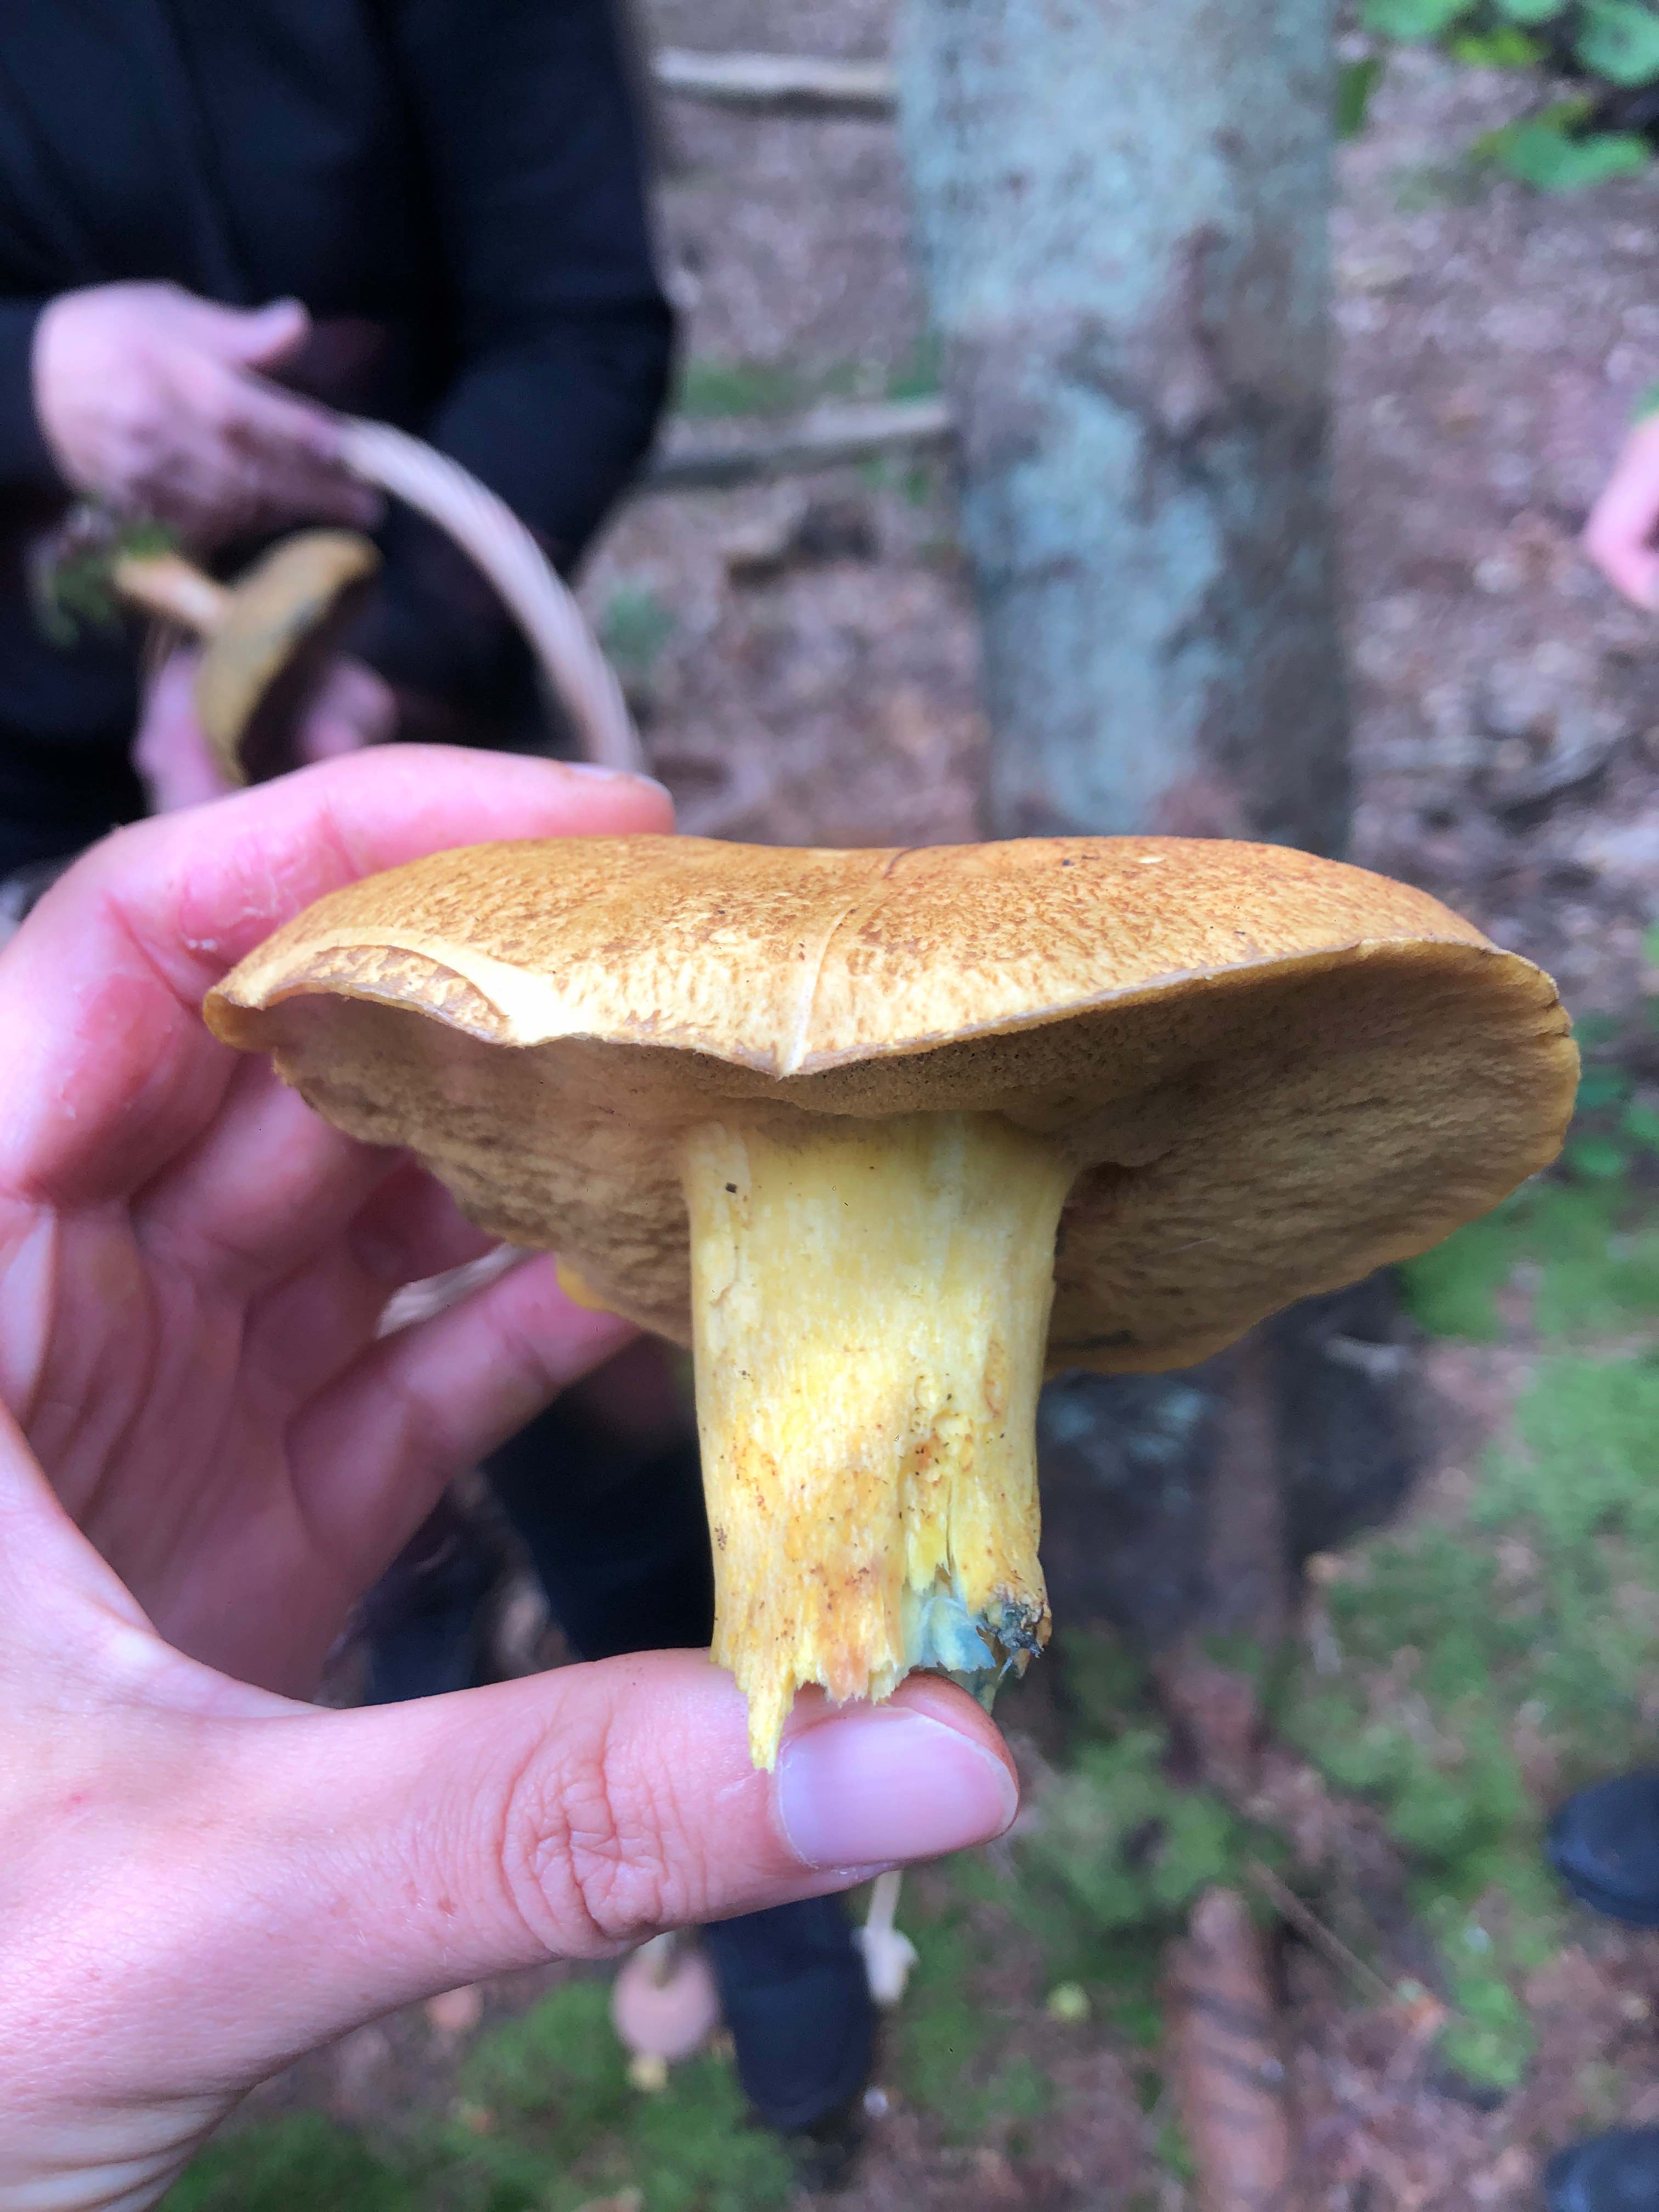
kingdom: Fungi
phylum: Basidiomycota
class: Agaricomycetes
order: Boletales
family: Suillaceae
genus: Suillus
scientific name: Suillus variegatus
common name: broget slimrørhat
